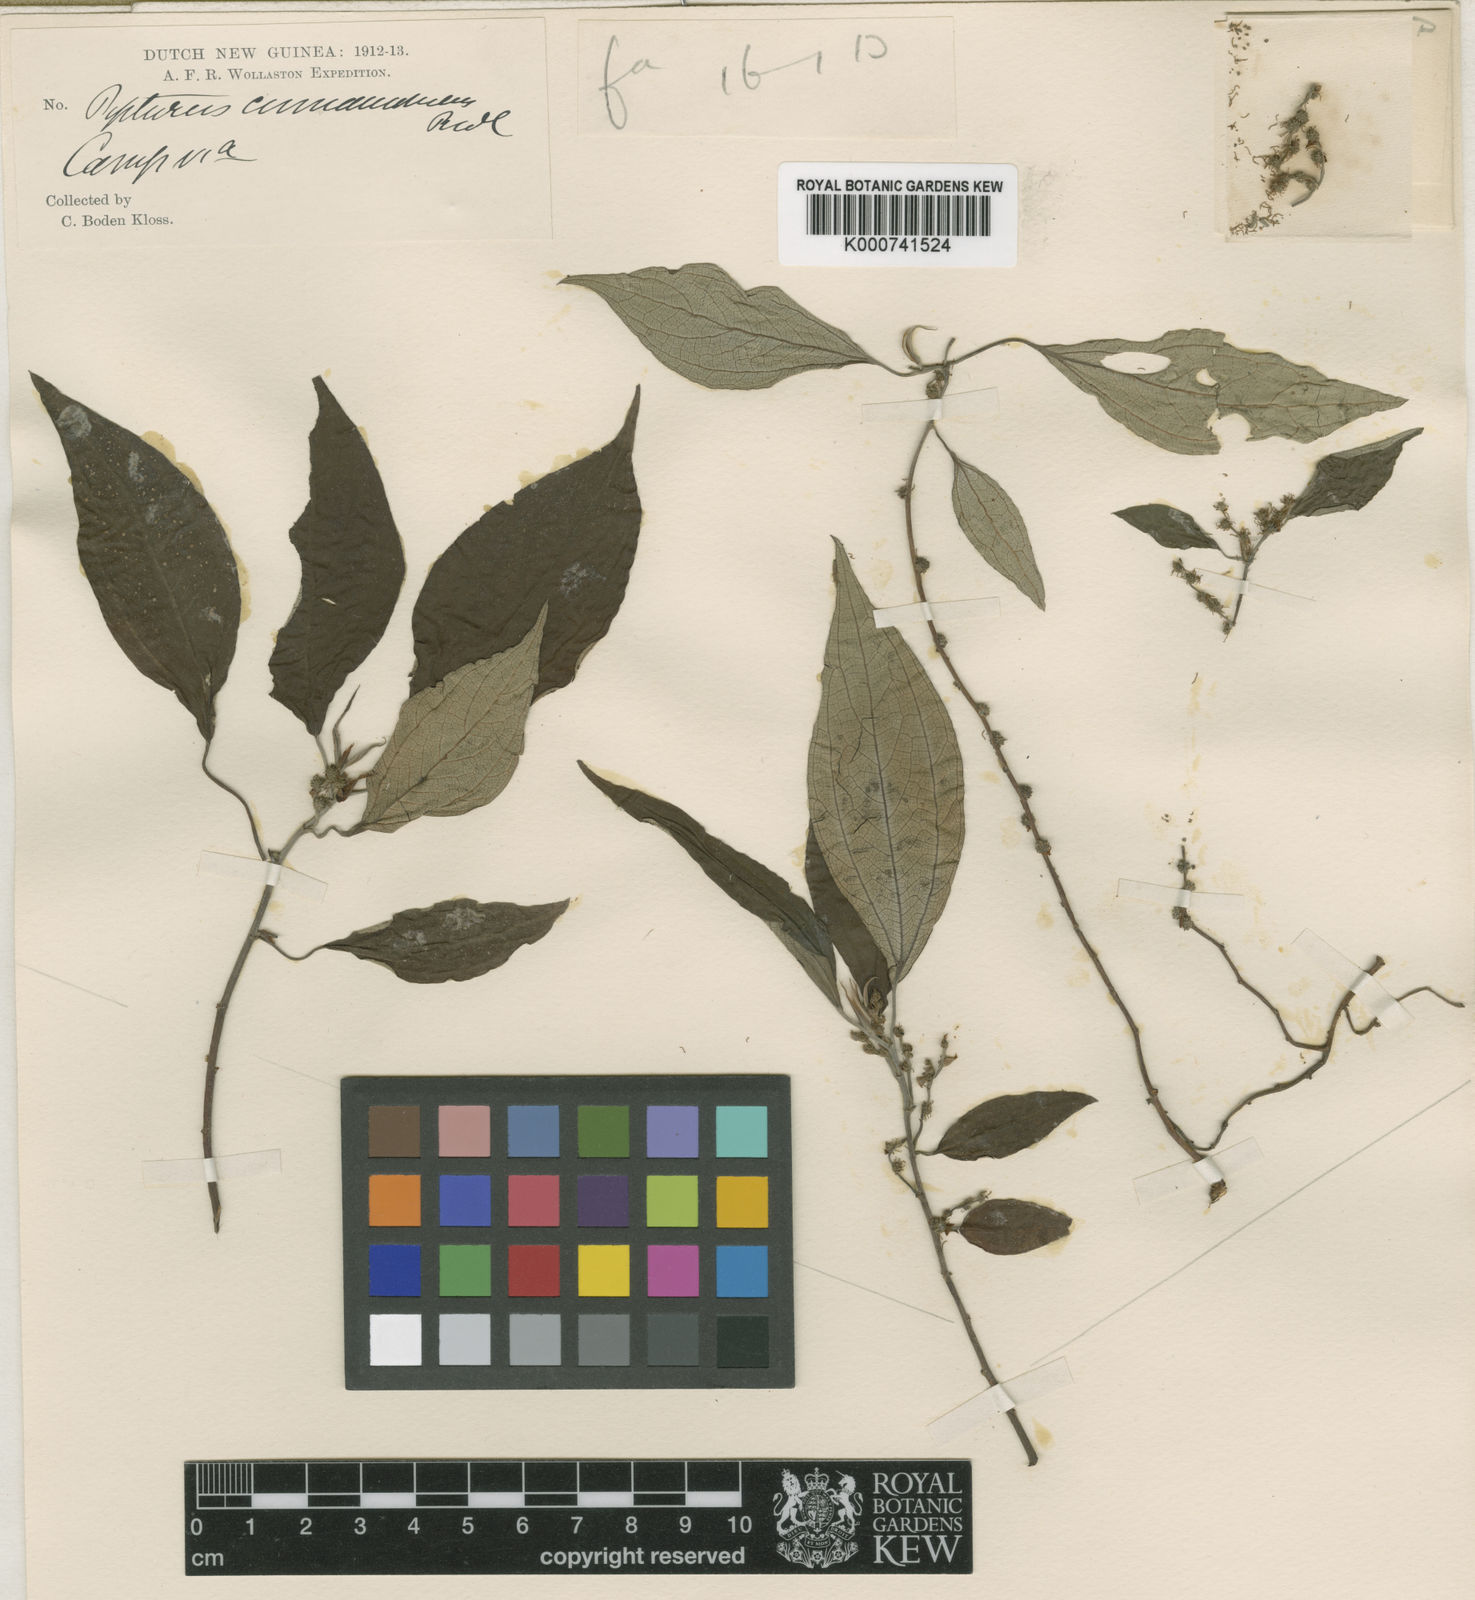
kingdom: Plantae
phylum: Tracheophyta
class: Magnoliopsida
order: Rosales
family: Urticaceae
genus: Pipturus
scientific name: Pipturus argenteus
